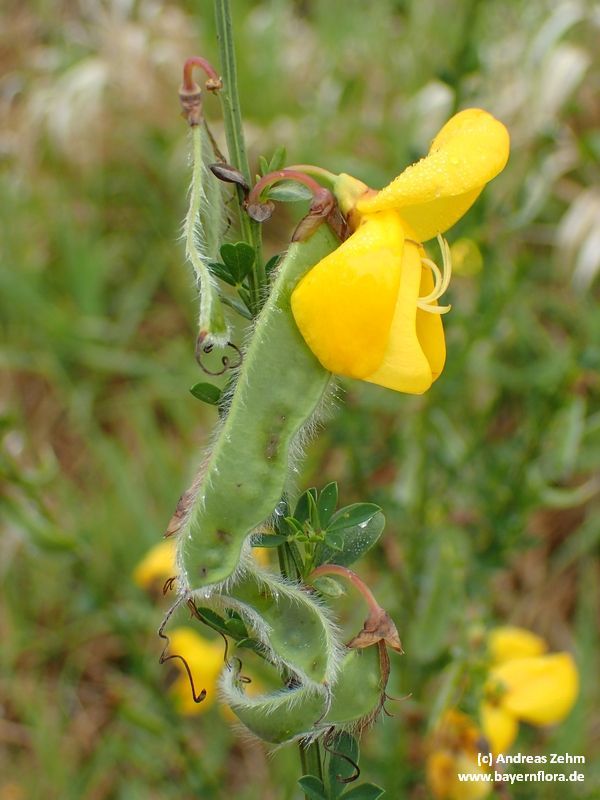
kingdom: Plantae
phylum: Tracheophyta
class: Magnoliopsida
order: Fabales
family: Fabaceae
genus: Cytisus
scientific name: Cytisus scoparius
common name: Scotch broom
